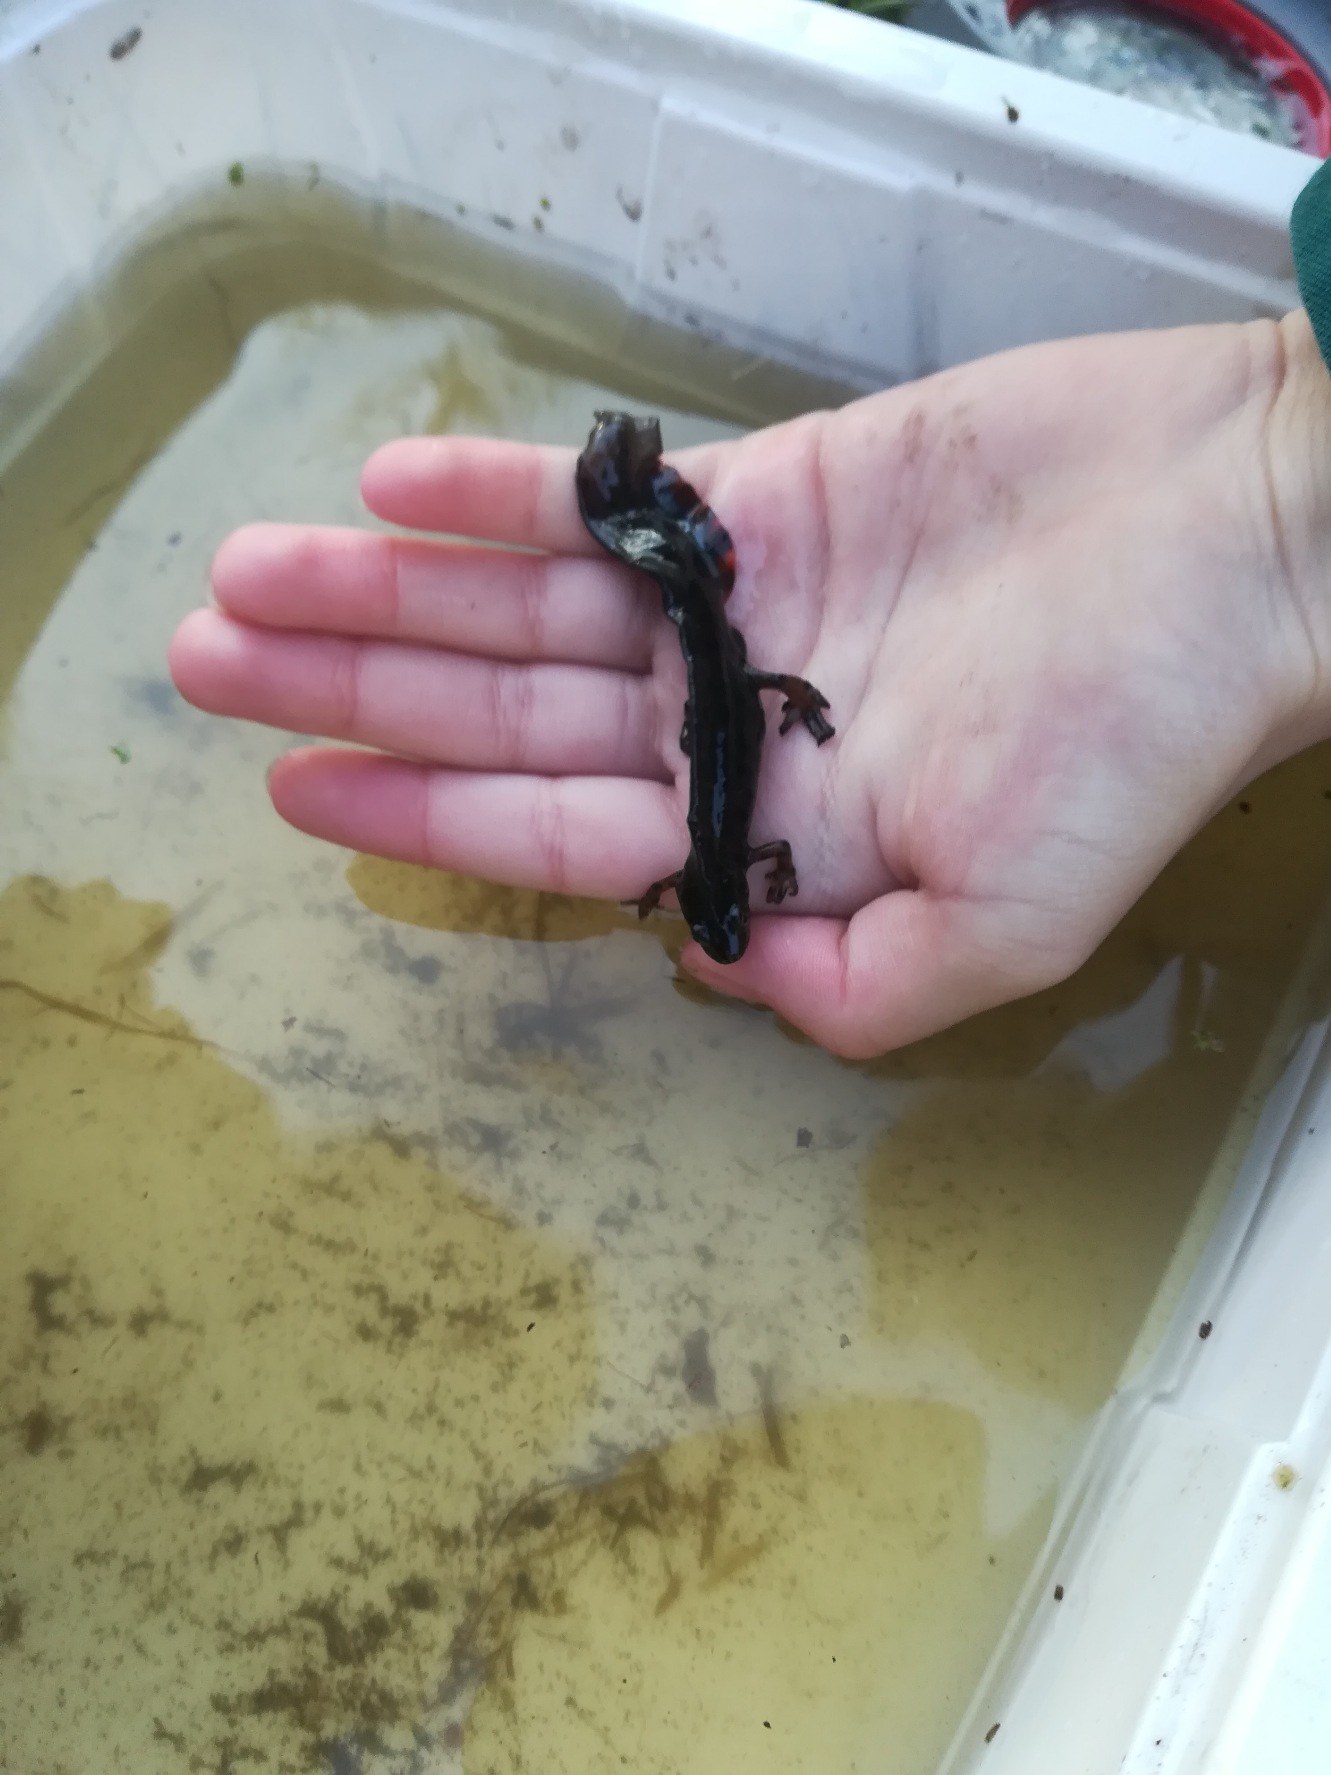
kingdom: Animalia
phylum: Chordata
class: Amphibia
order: Caudata
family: Salamandridae
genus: Lissotriton
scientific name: Lissotriton vulgaris
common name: Lille vandsalamander
